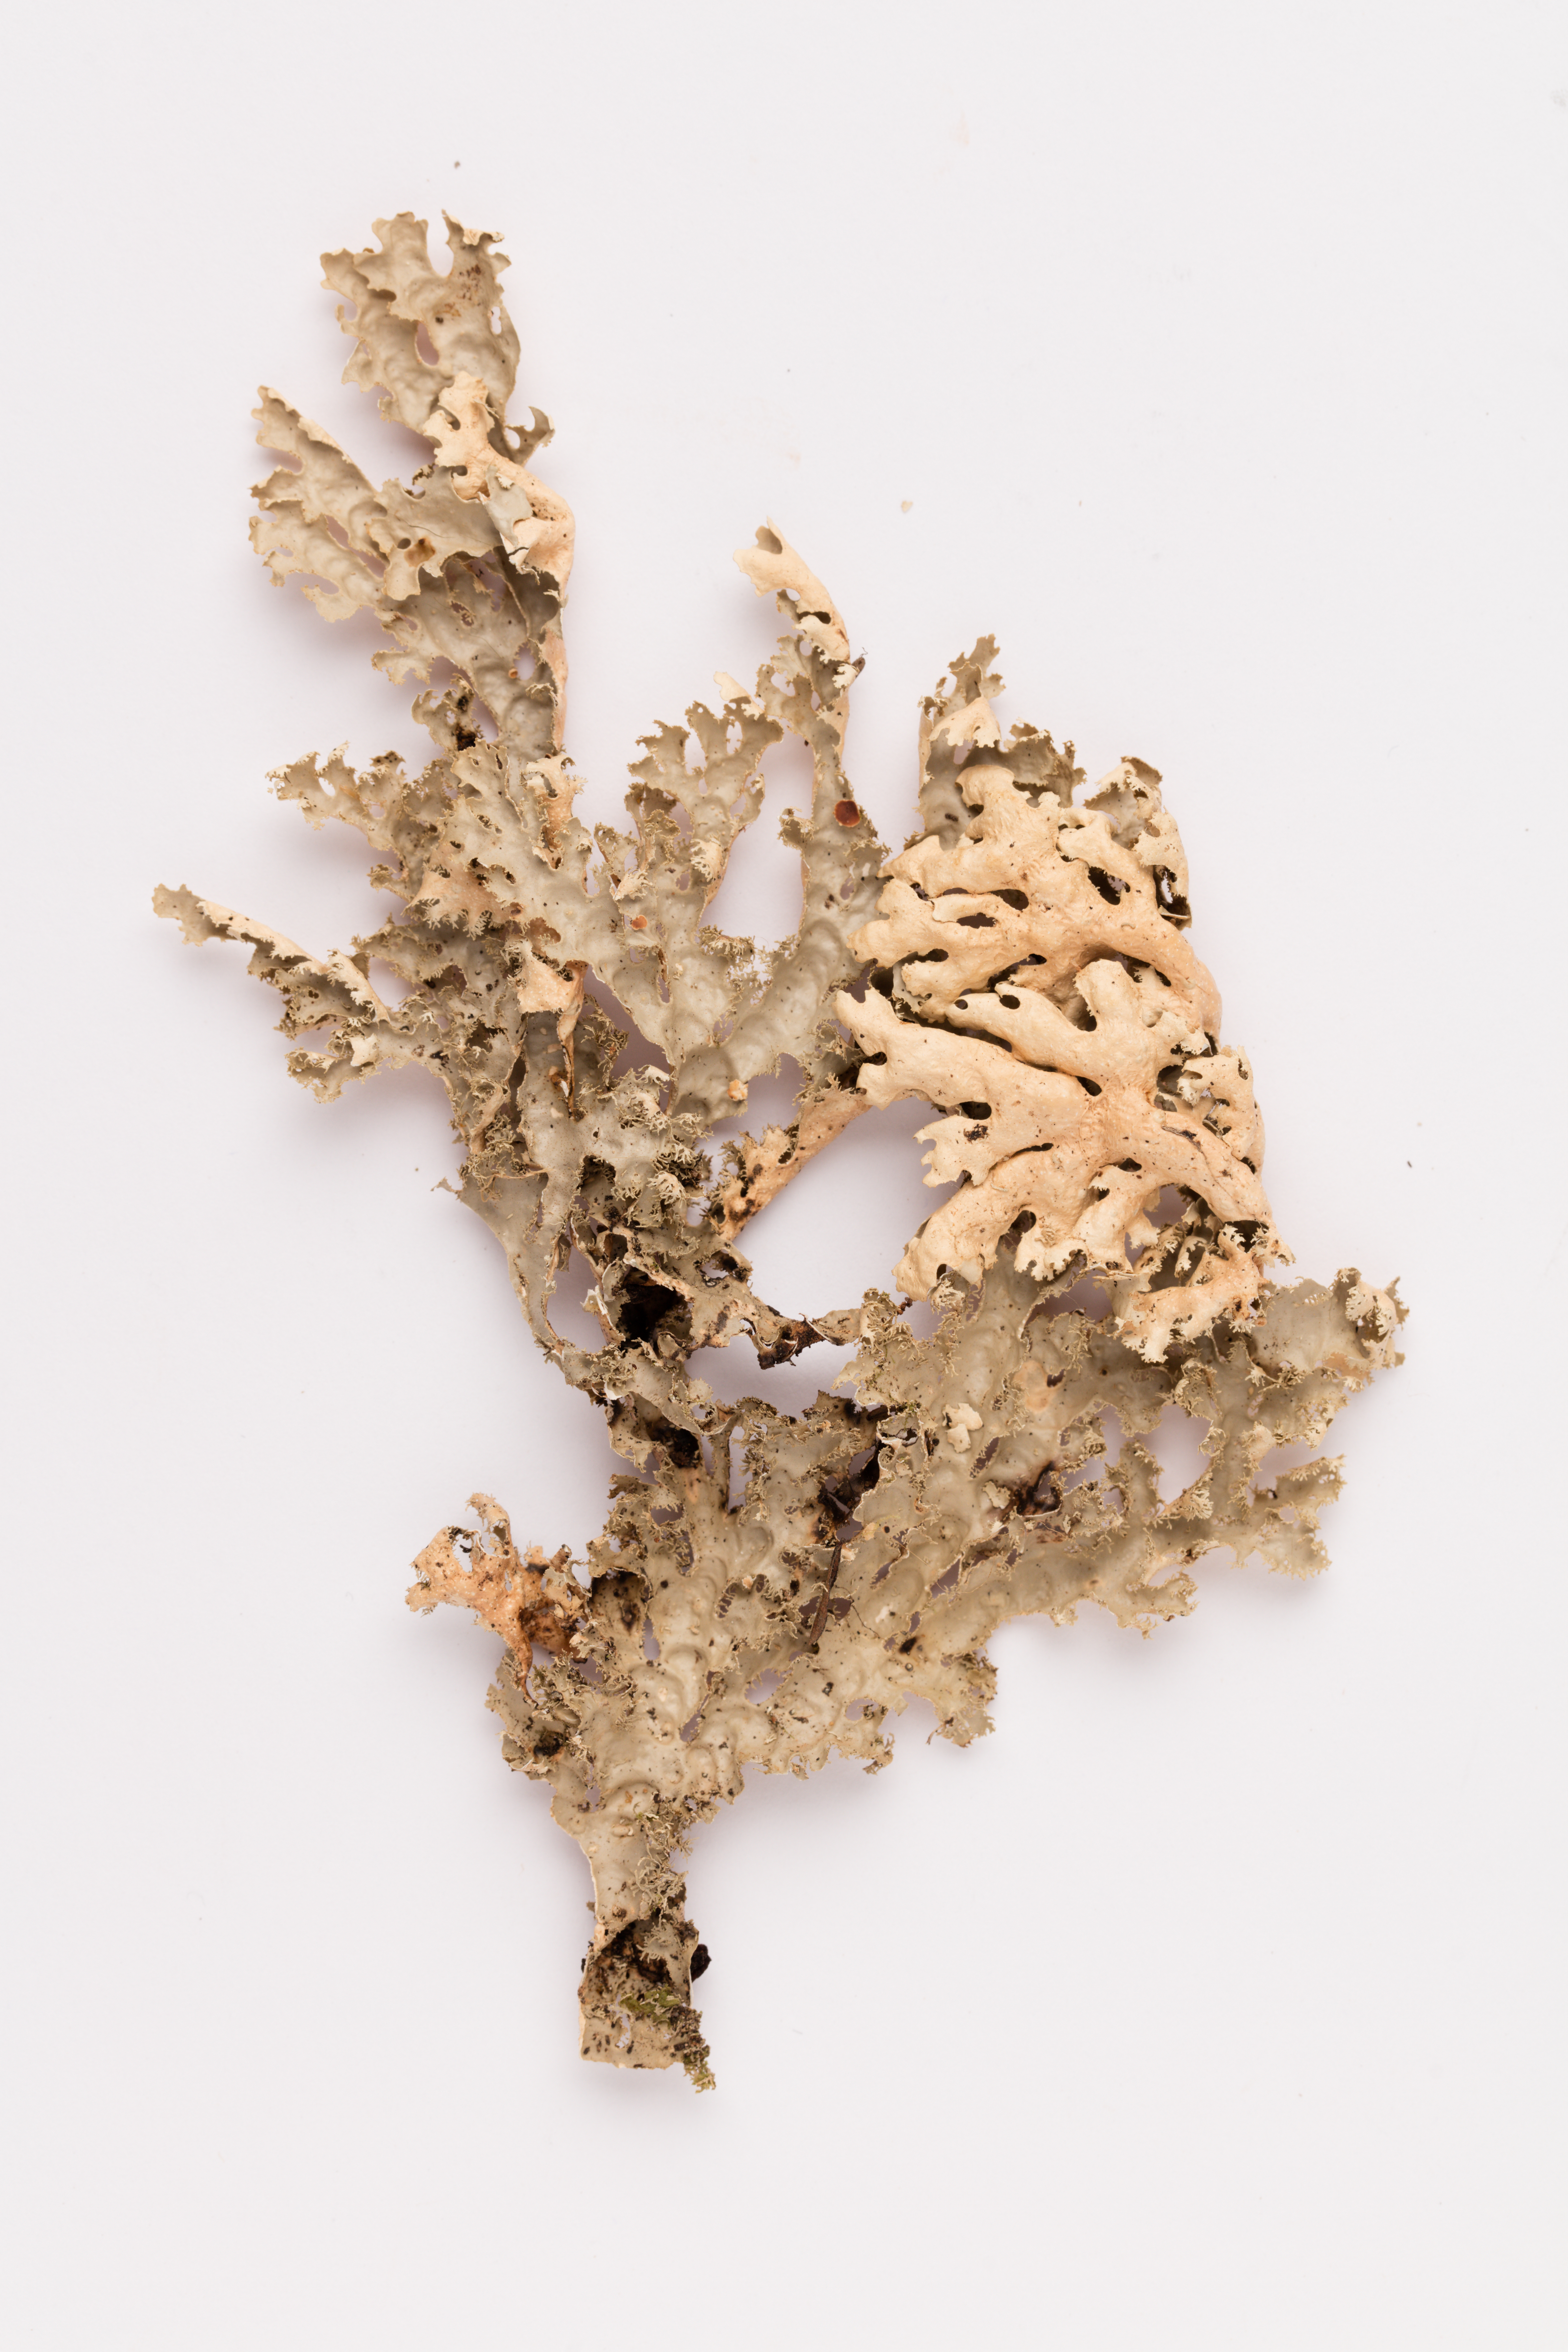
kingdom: Fungi
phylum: Ascomycota
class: Lecanoromycetes
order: Peltigerales
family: Lobariaceae
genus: Pseudocyphellaria
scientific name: Pseudocyphellaria chloroleuca
